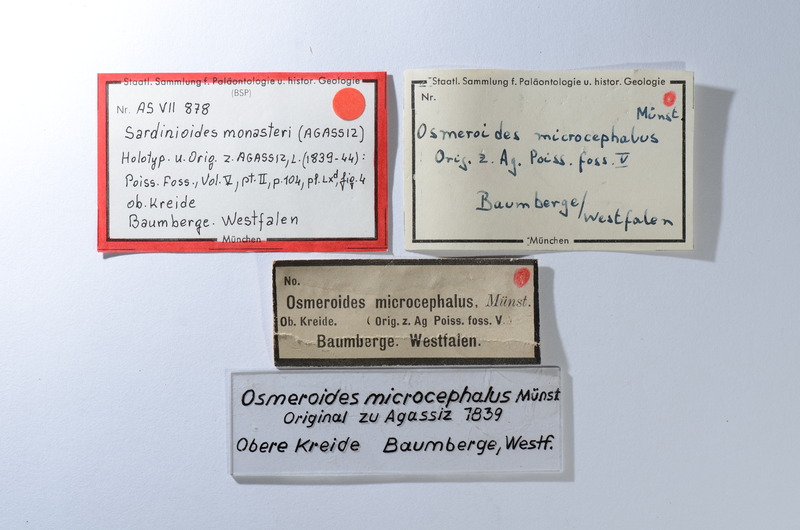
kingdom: Animalia
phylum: Chordata
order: Myctophiformes
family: Sardinoididae
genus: Sardinioides
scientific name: Sardinioides Osmeroides monasterii
